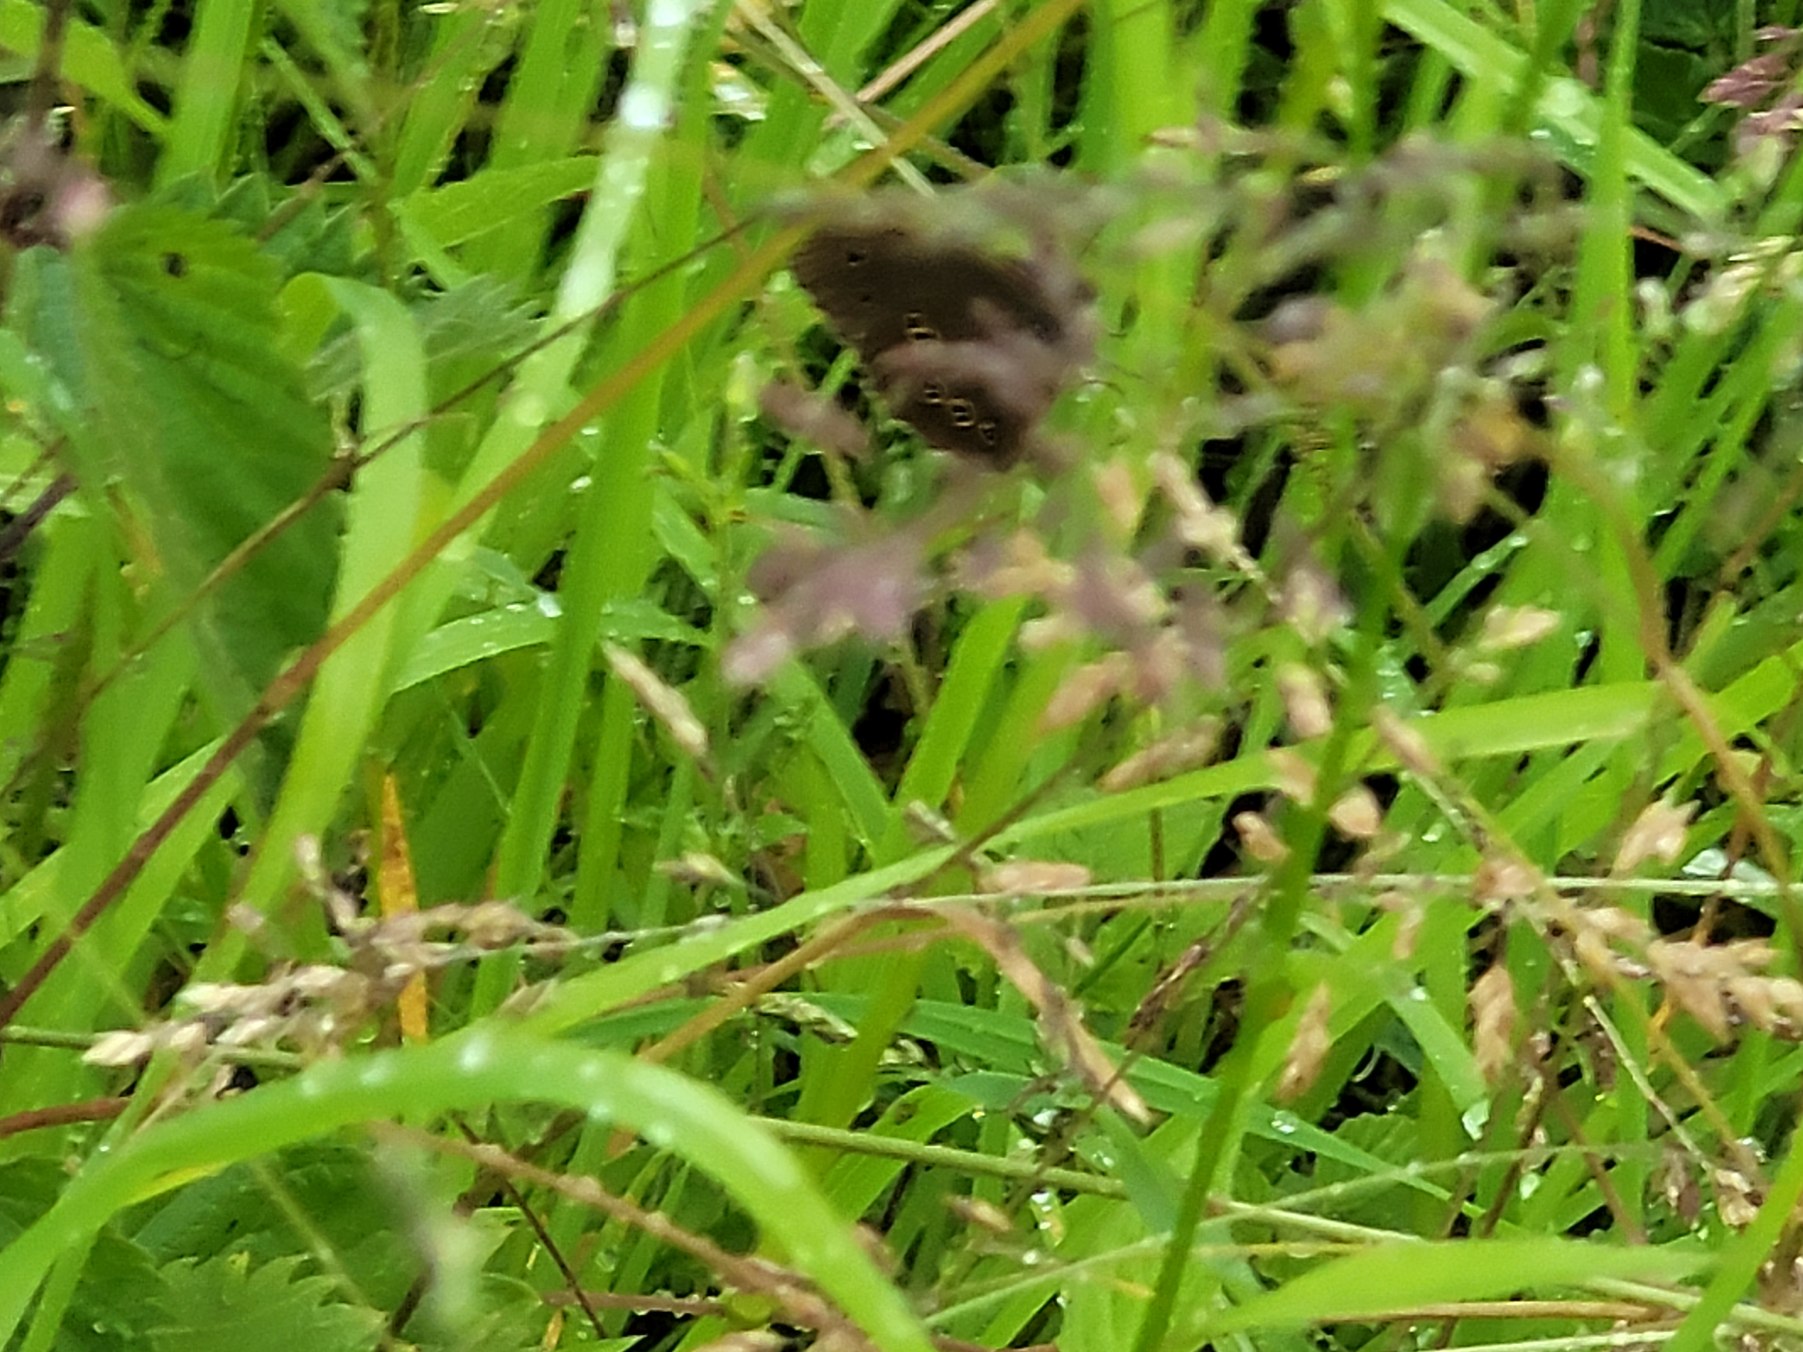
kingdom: Animalia
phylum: Arthropoda
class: Insecta
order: Lepidoptera
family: Nymphalidae
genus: Aphantopus
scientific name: Aphantopus hyperantus
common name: Engrandøje
